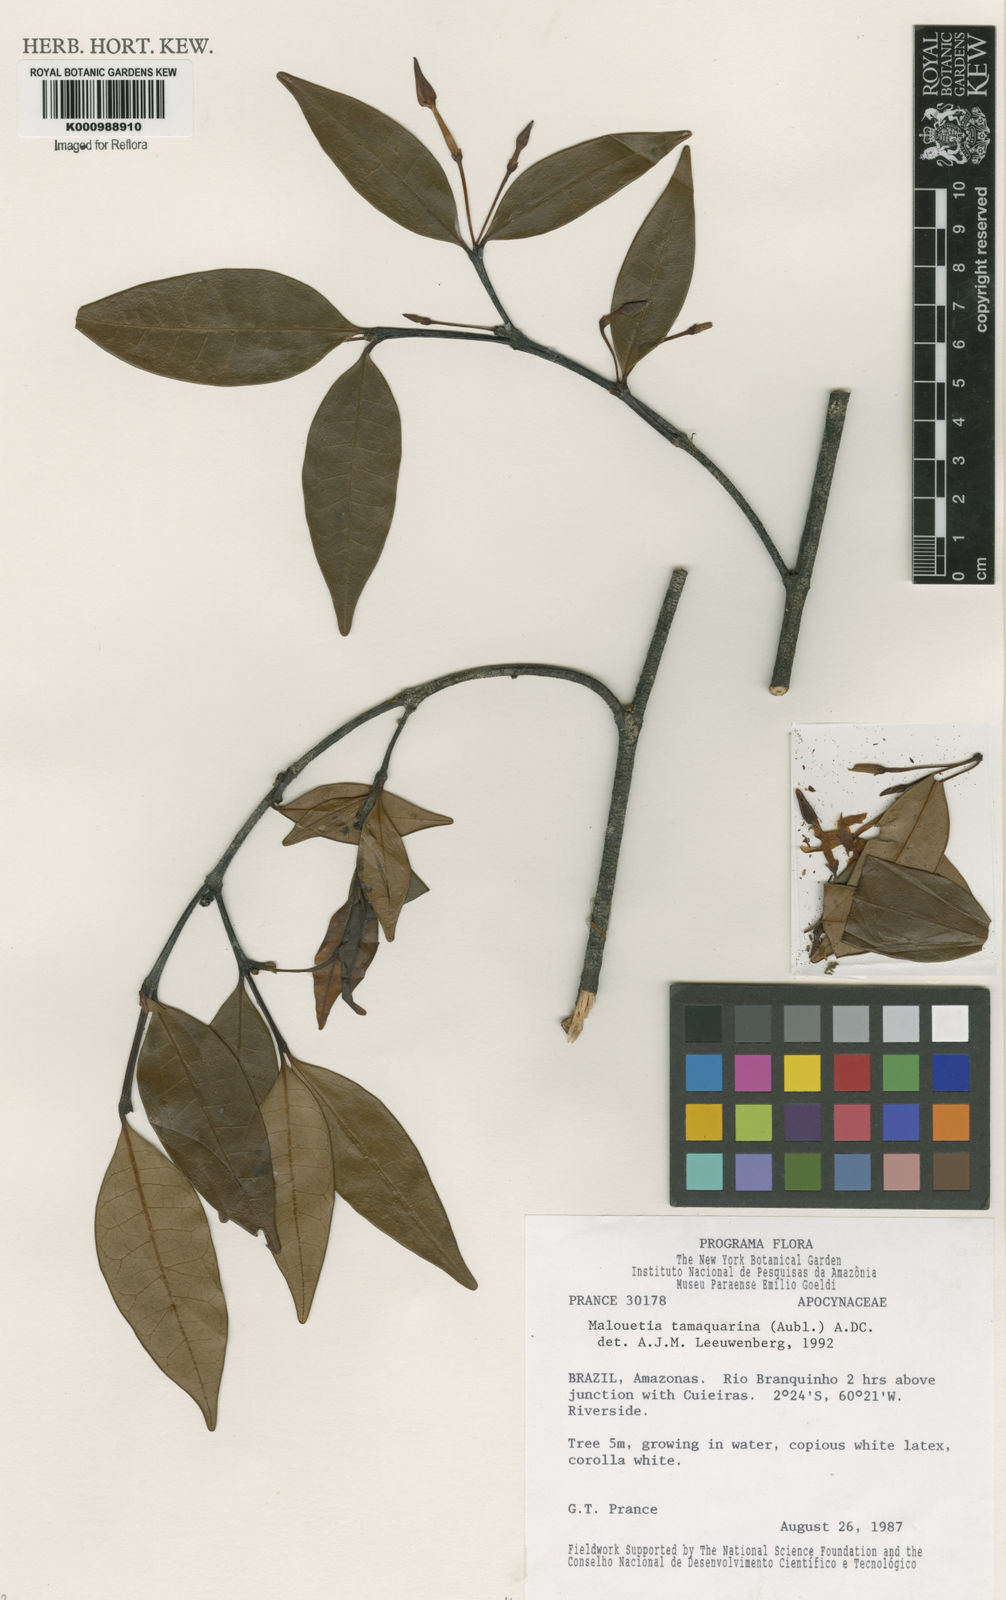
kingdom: Plantae
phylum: Tracheophyta
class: Magnoliopsida
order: Gentianales
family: Apocynaceae
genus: Malouetia
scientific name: Malouetia tamaquarina
